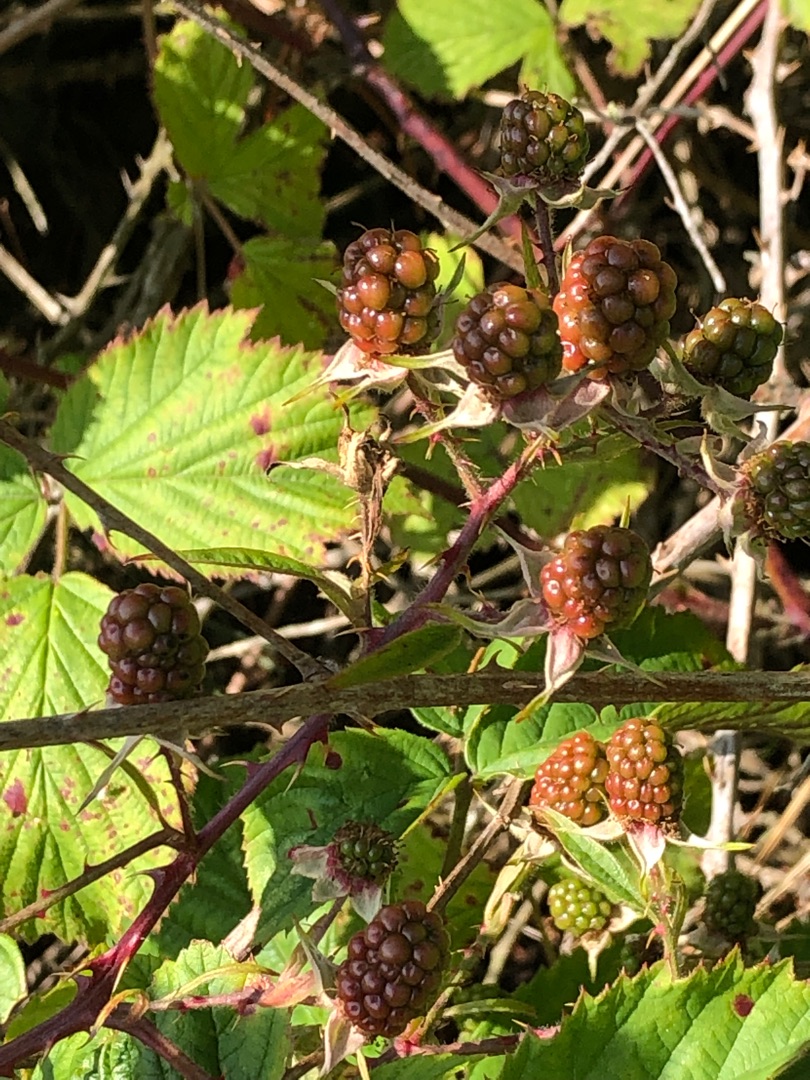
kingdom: Plantae
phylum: Tracheophyta
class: Magnoliopsida
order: Rosales
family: Rosaceae
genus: Rubus
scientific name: Rubus
